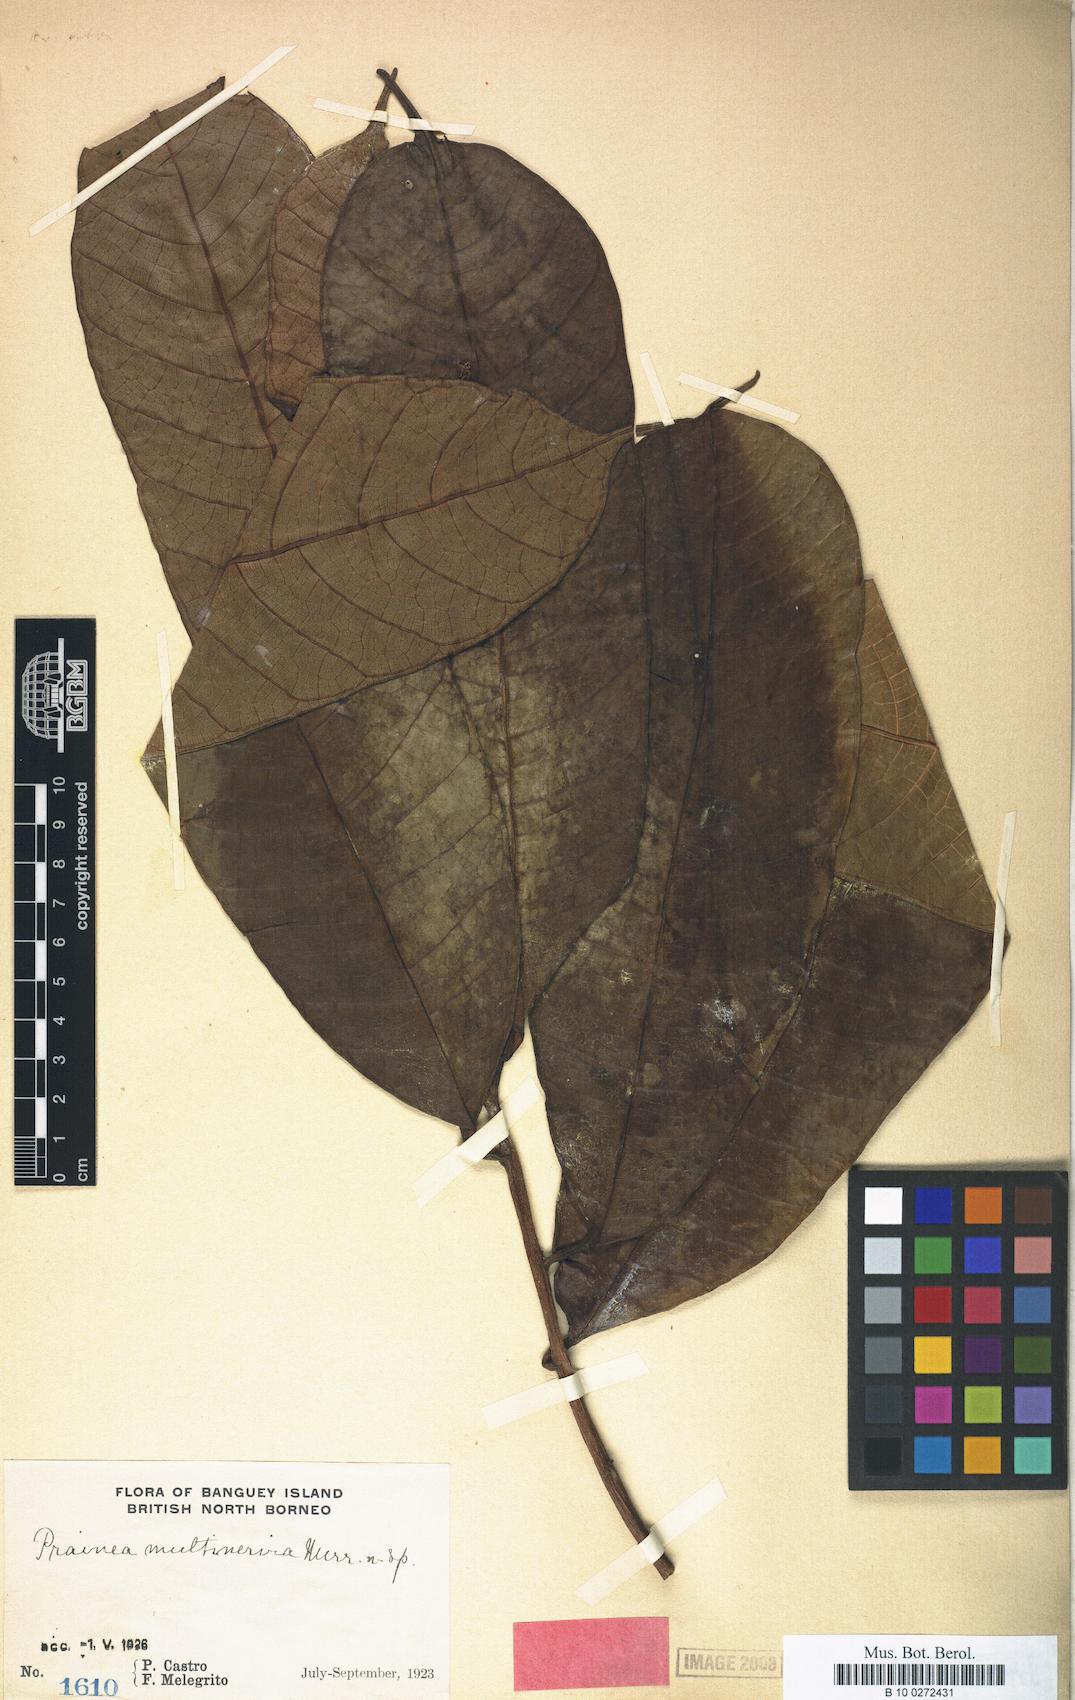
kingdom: Plantae
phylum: Tracheophyta
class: Magnoliopsida
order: Rosales
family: Moraceae
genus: Prainea
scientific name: Prainea limpato
